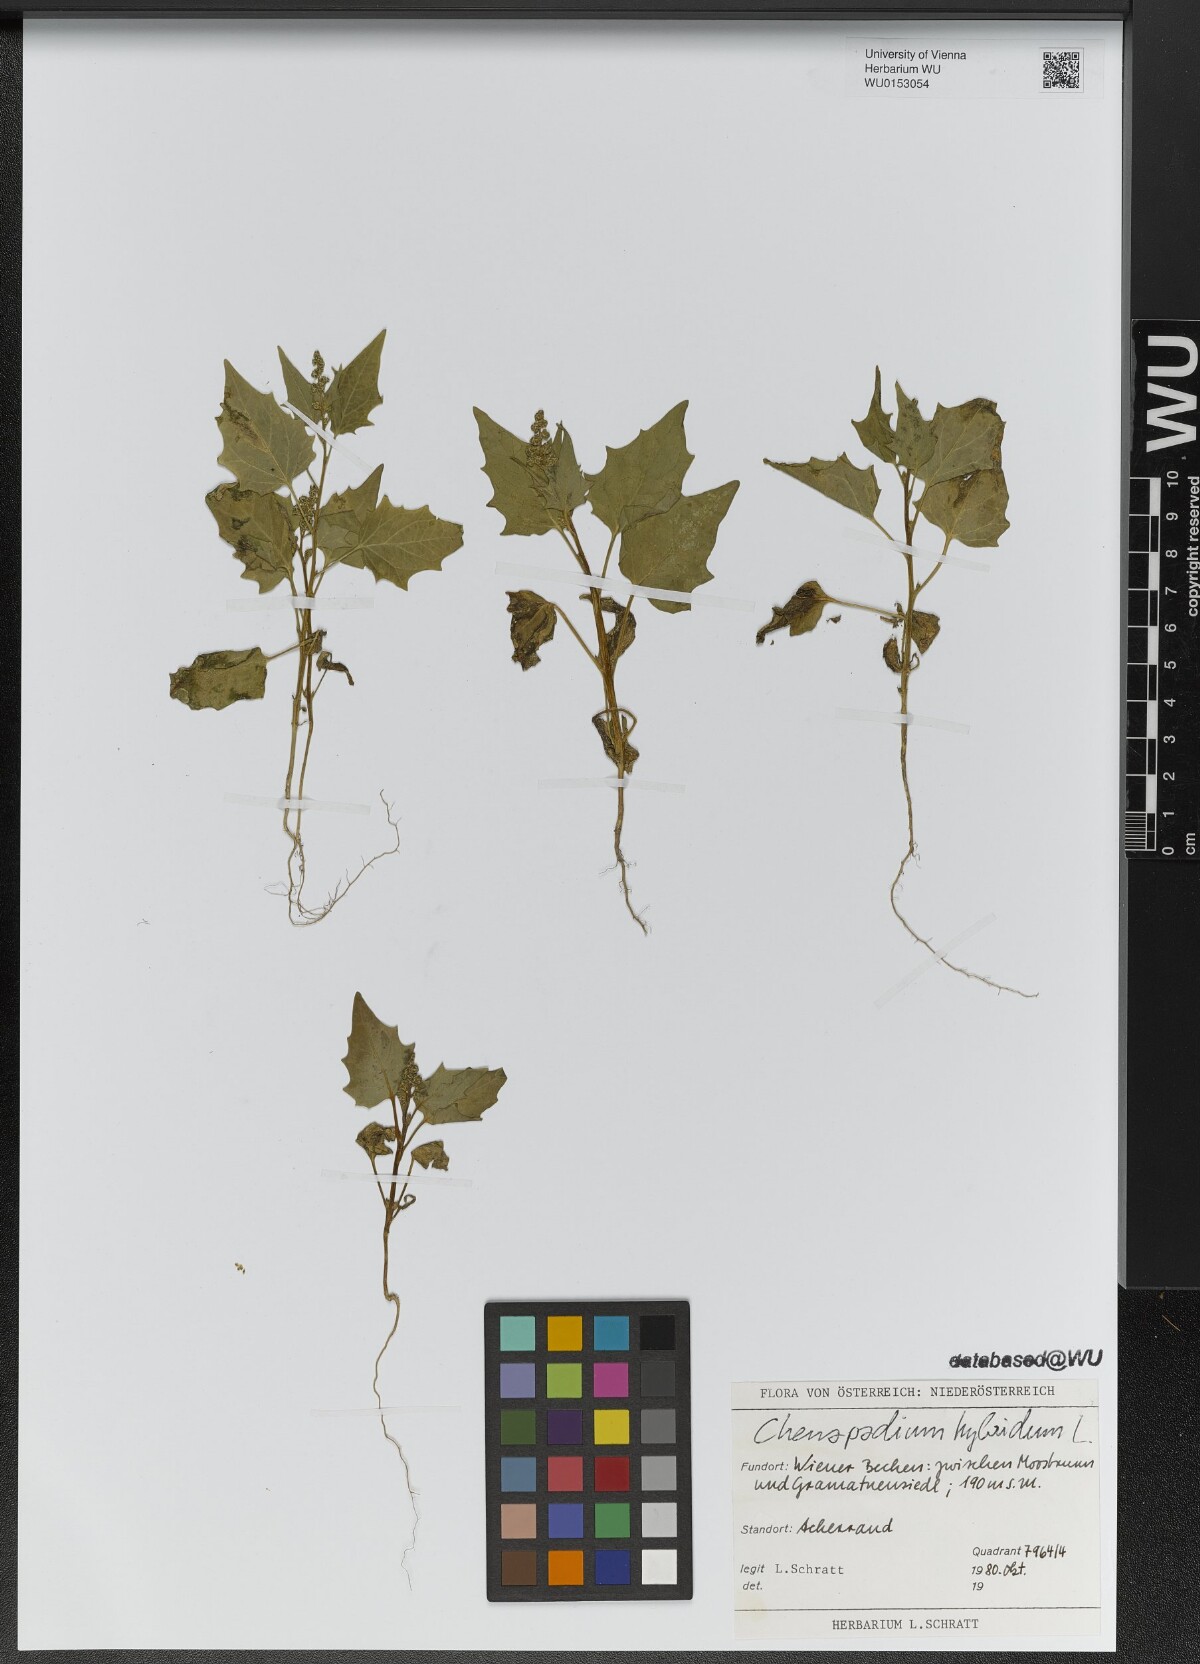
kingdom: Plantae
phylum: Tracheophyta
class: Magnoliopsida
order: Caryophyllales
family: Amaranthaceae
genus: Chenopodiastrum
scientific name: Chenopodiastrum hybridum
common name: Mapleleaf goosefoot
